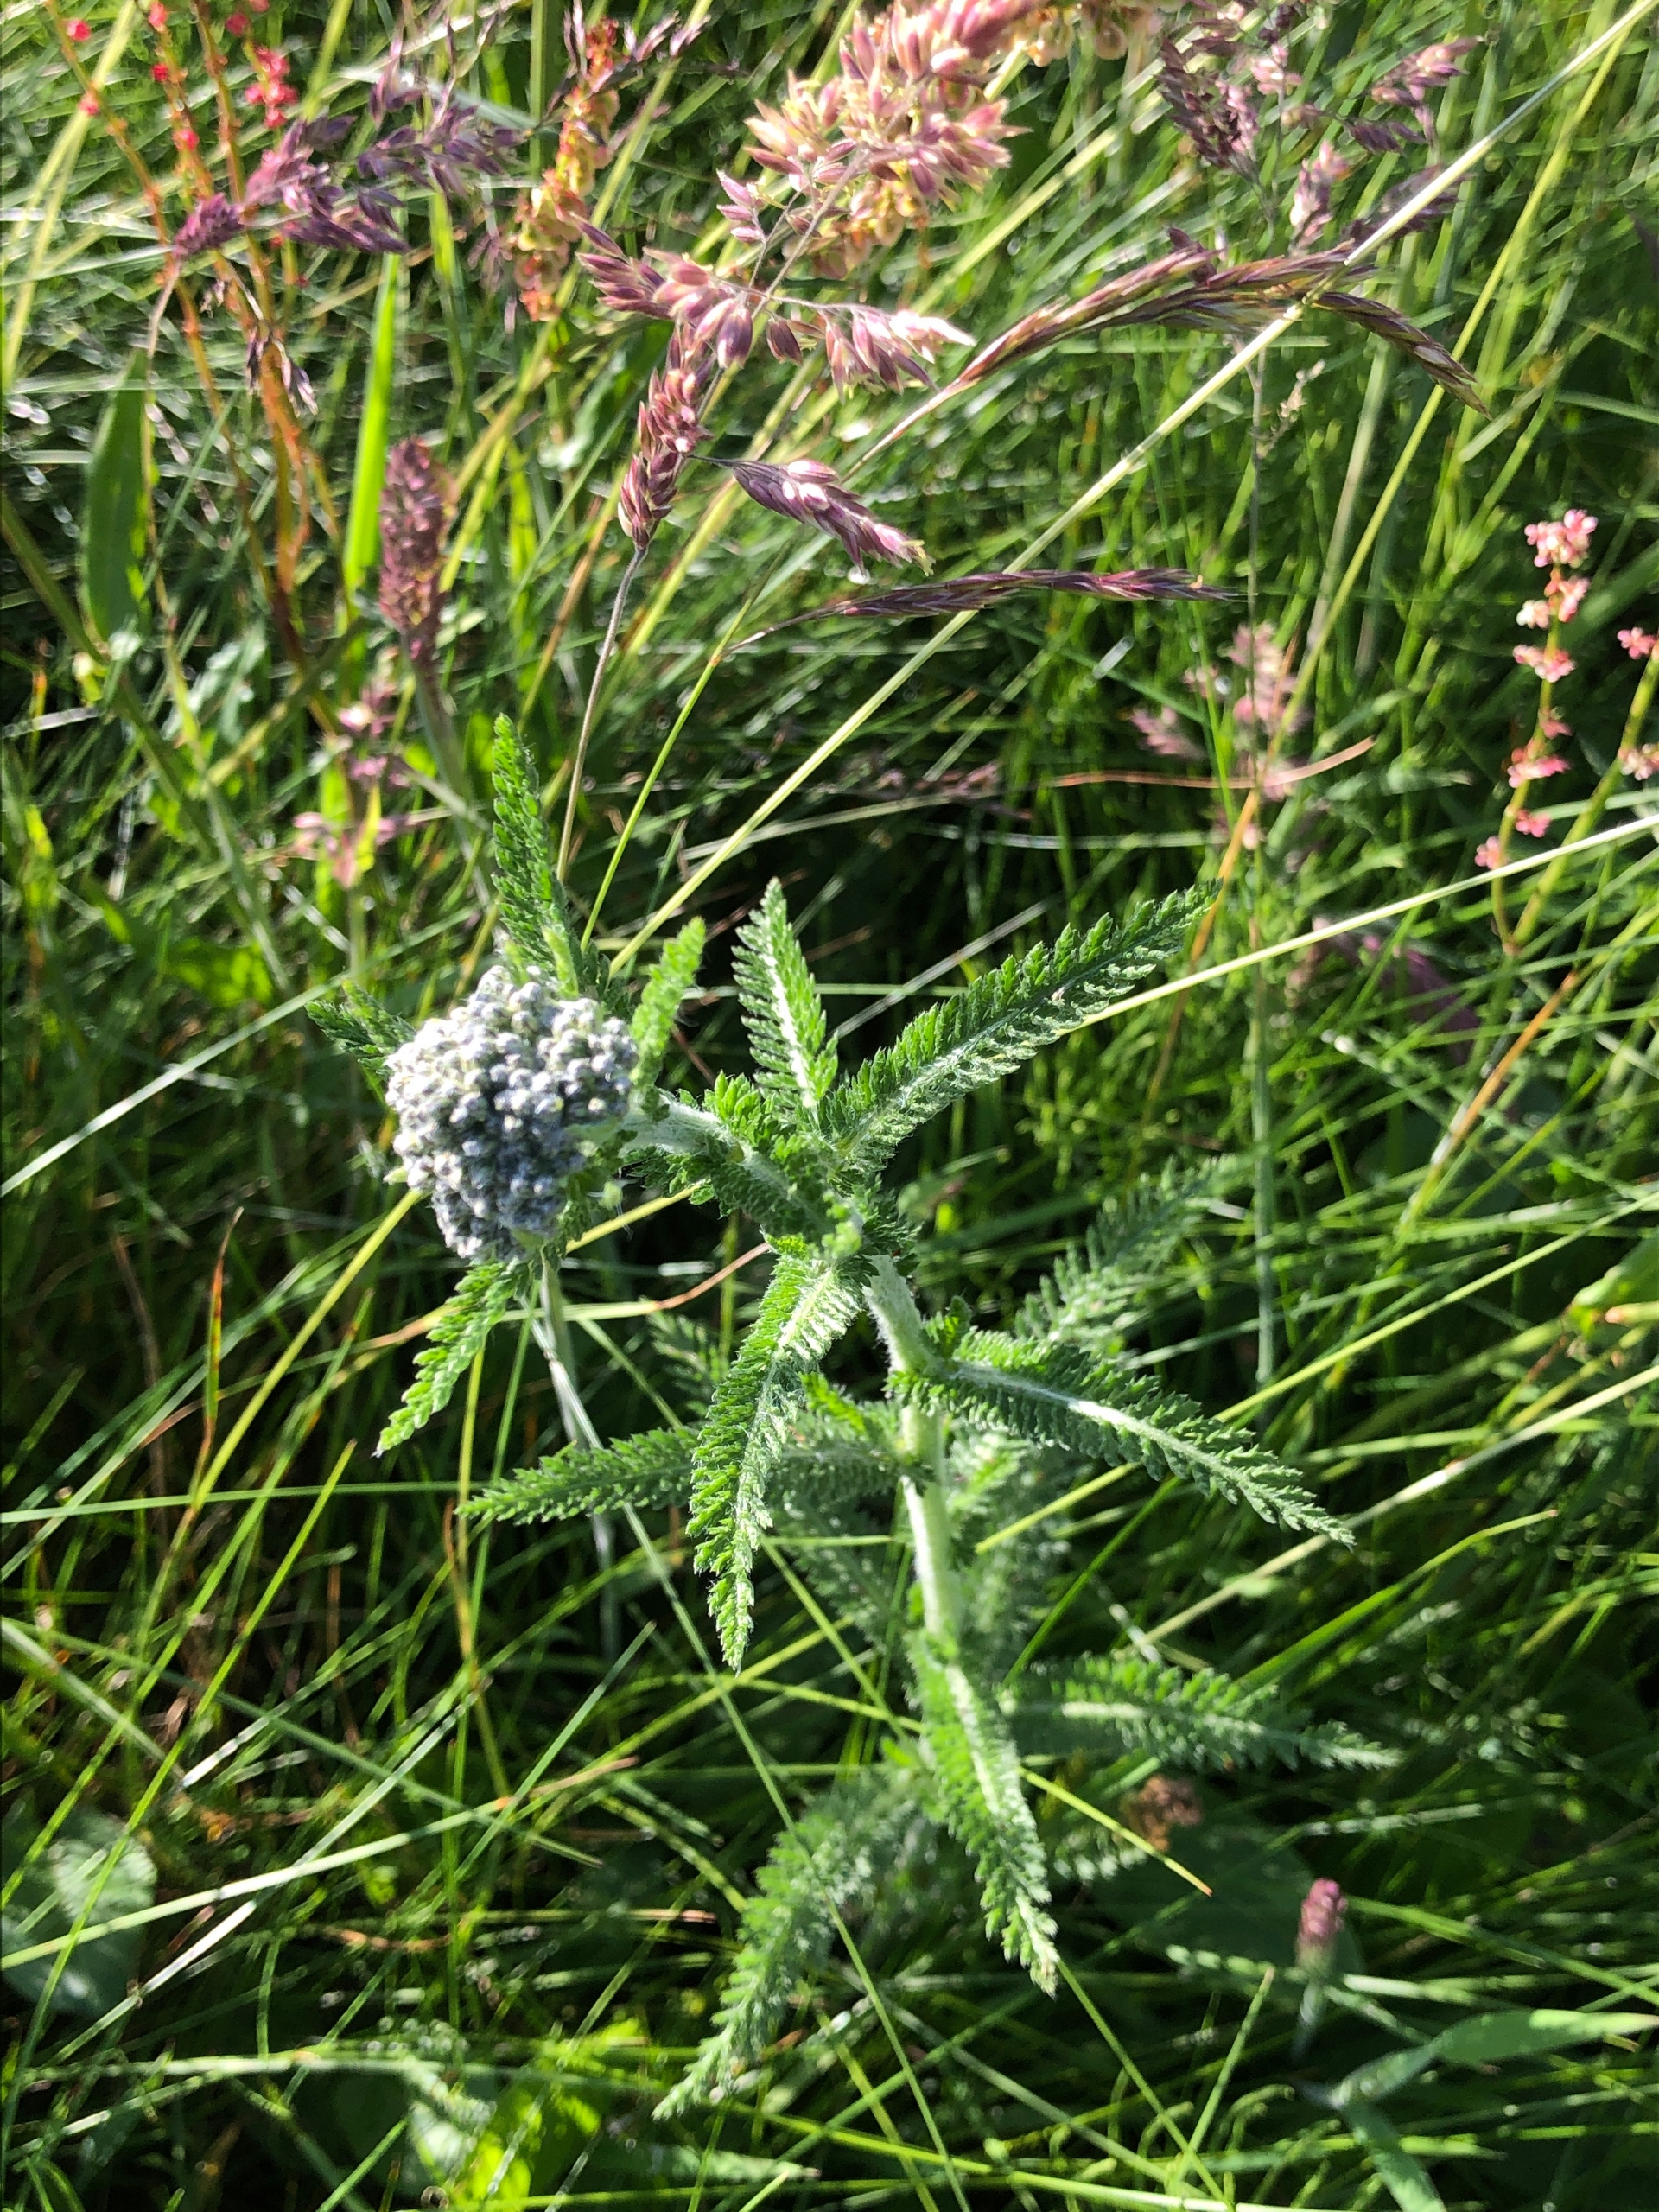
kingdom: Plantae
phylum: Tracheophyta
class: Magnoliopsida
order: Asterales
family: Asteraceae
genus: Achillea
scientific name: Achillea millefolium
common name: Almindelig røllike
